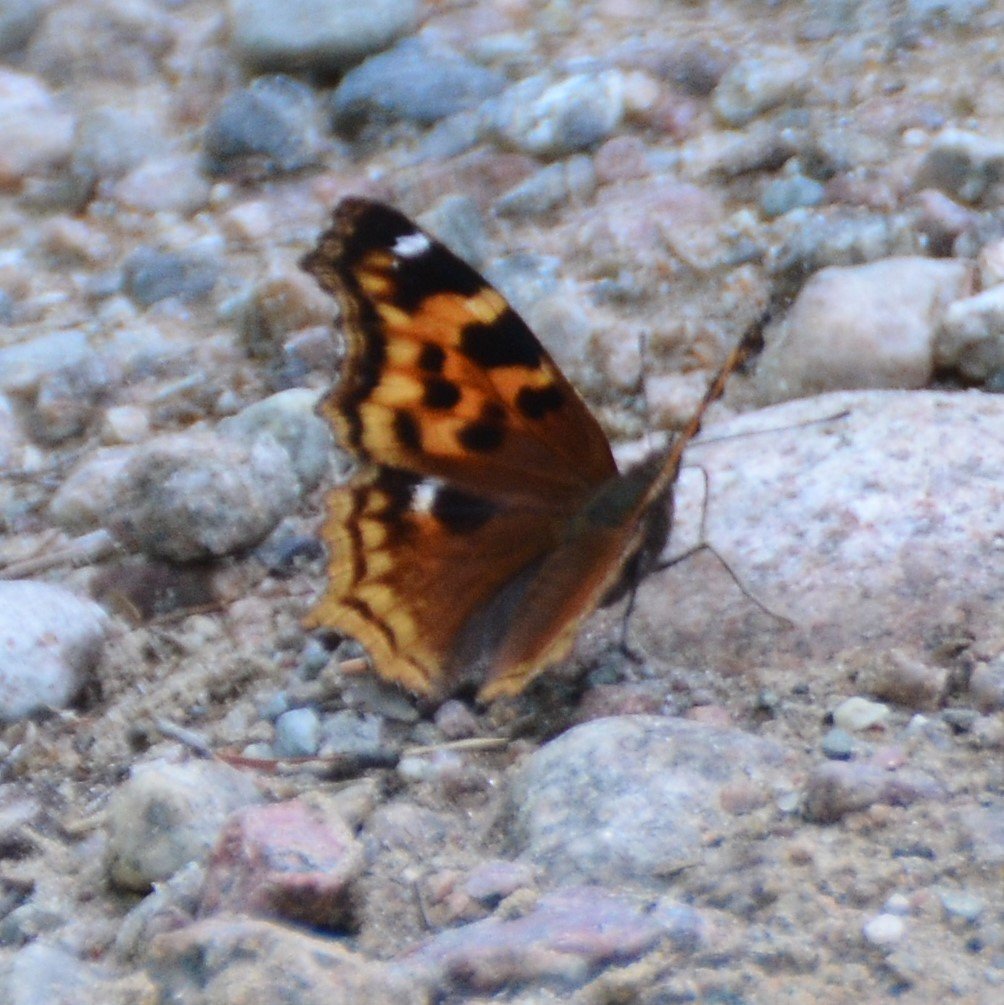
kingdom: Animalia
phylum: Arthropoda
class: Insecta
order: Lepidoptera
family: Nymphalidae
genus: Polygonia
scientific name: Polygonia vaualbum
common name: Compton Tortoiseshell
